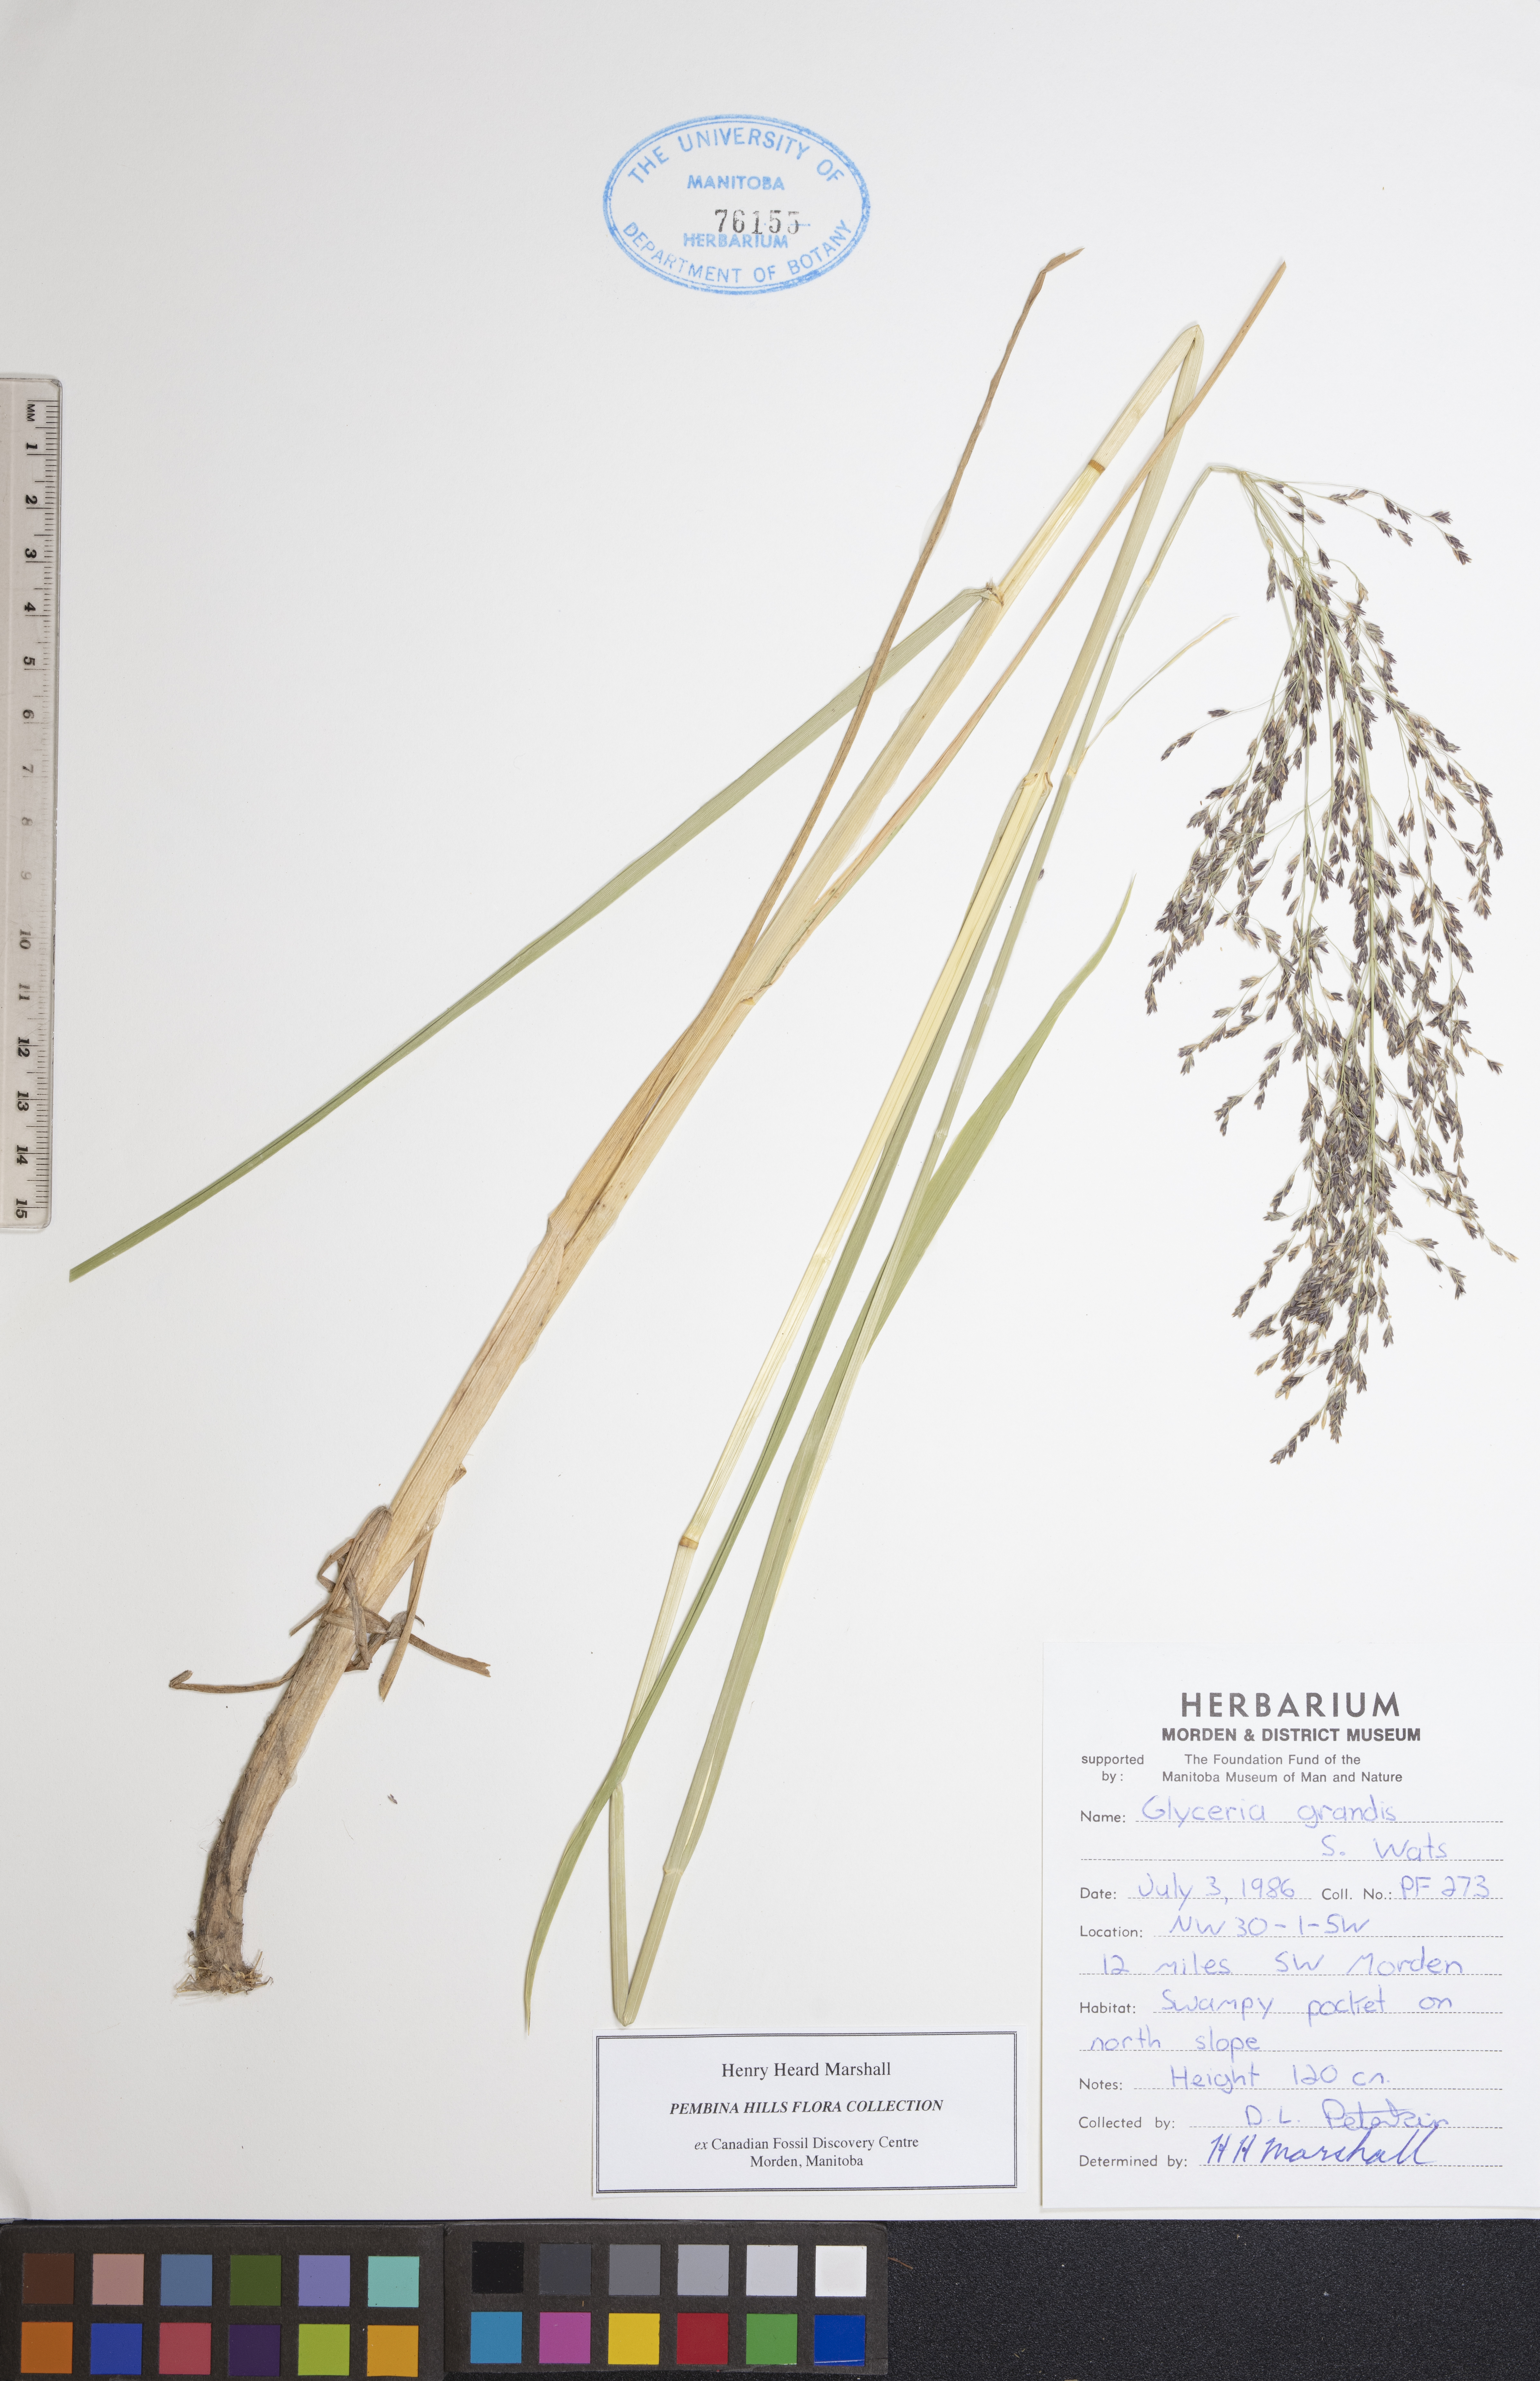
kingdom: Plantae
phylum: Tracheophyta
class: Liliopsida
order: Poales
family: Poaceae
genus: Glyceria
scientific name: Glyceria grandis
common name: American glyceria
